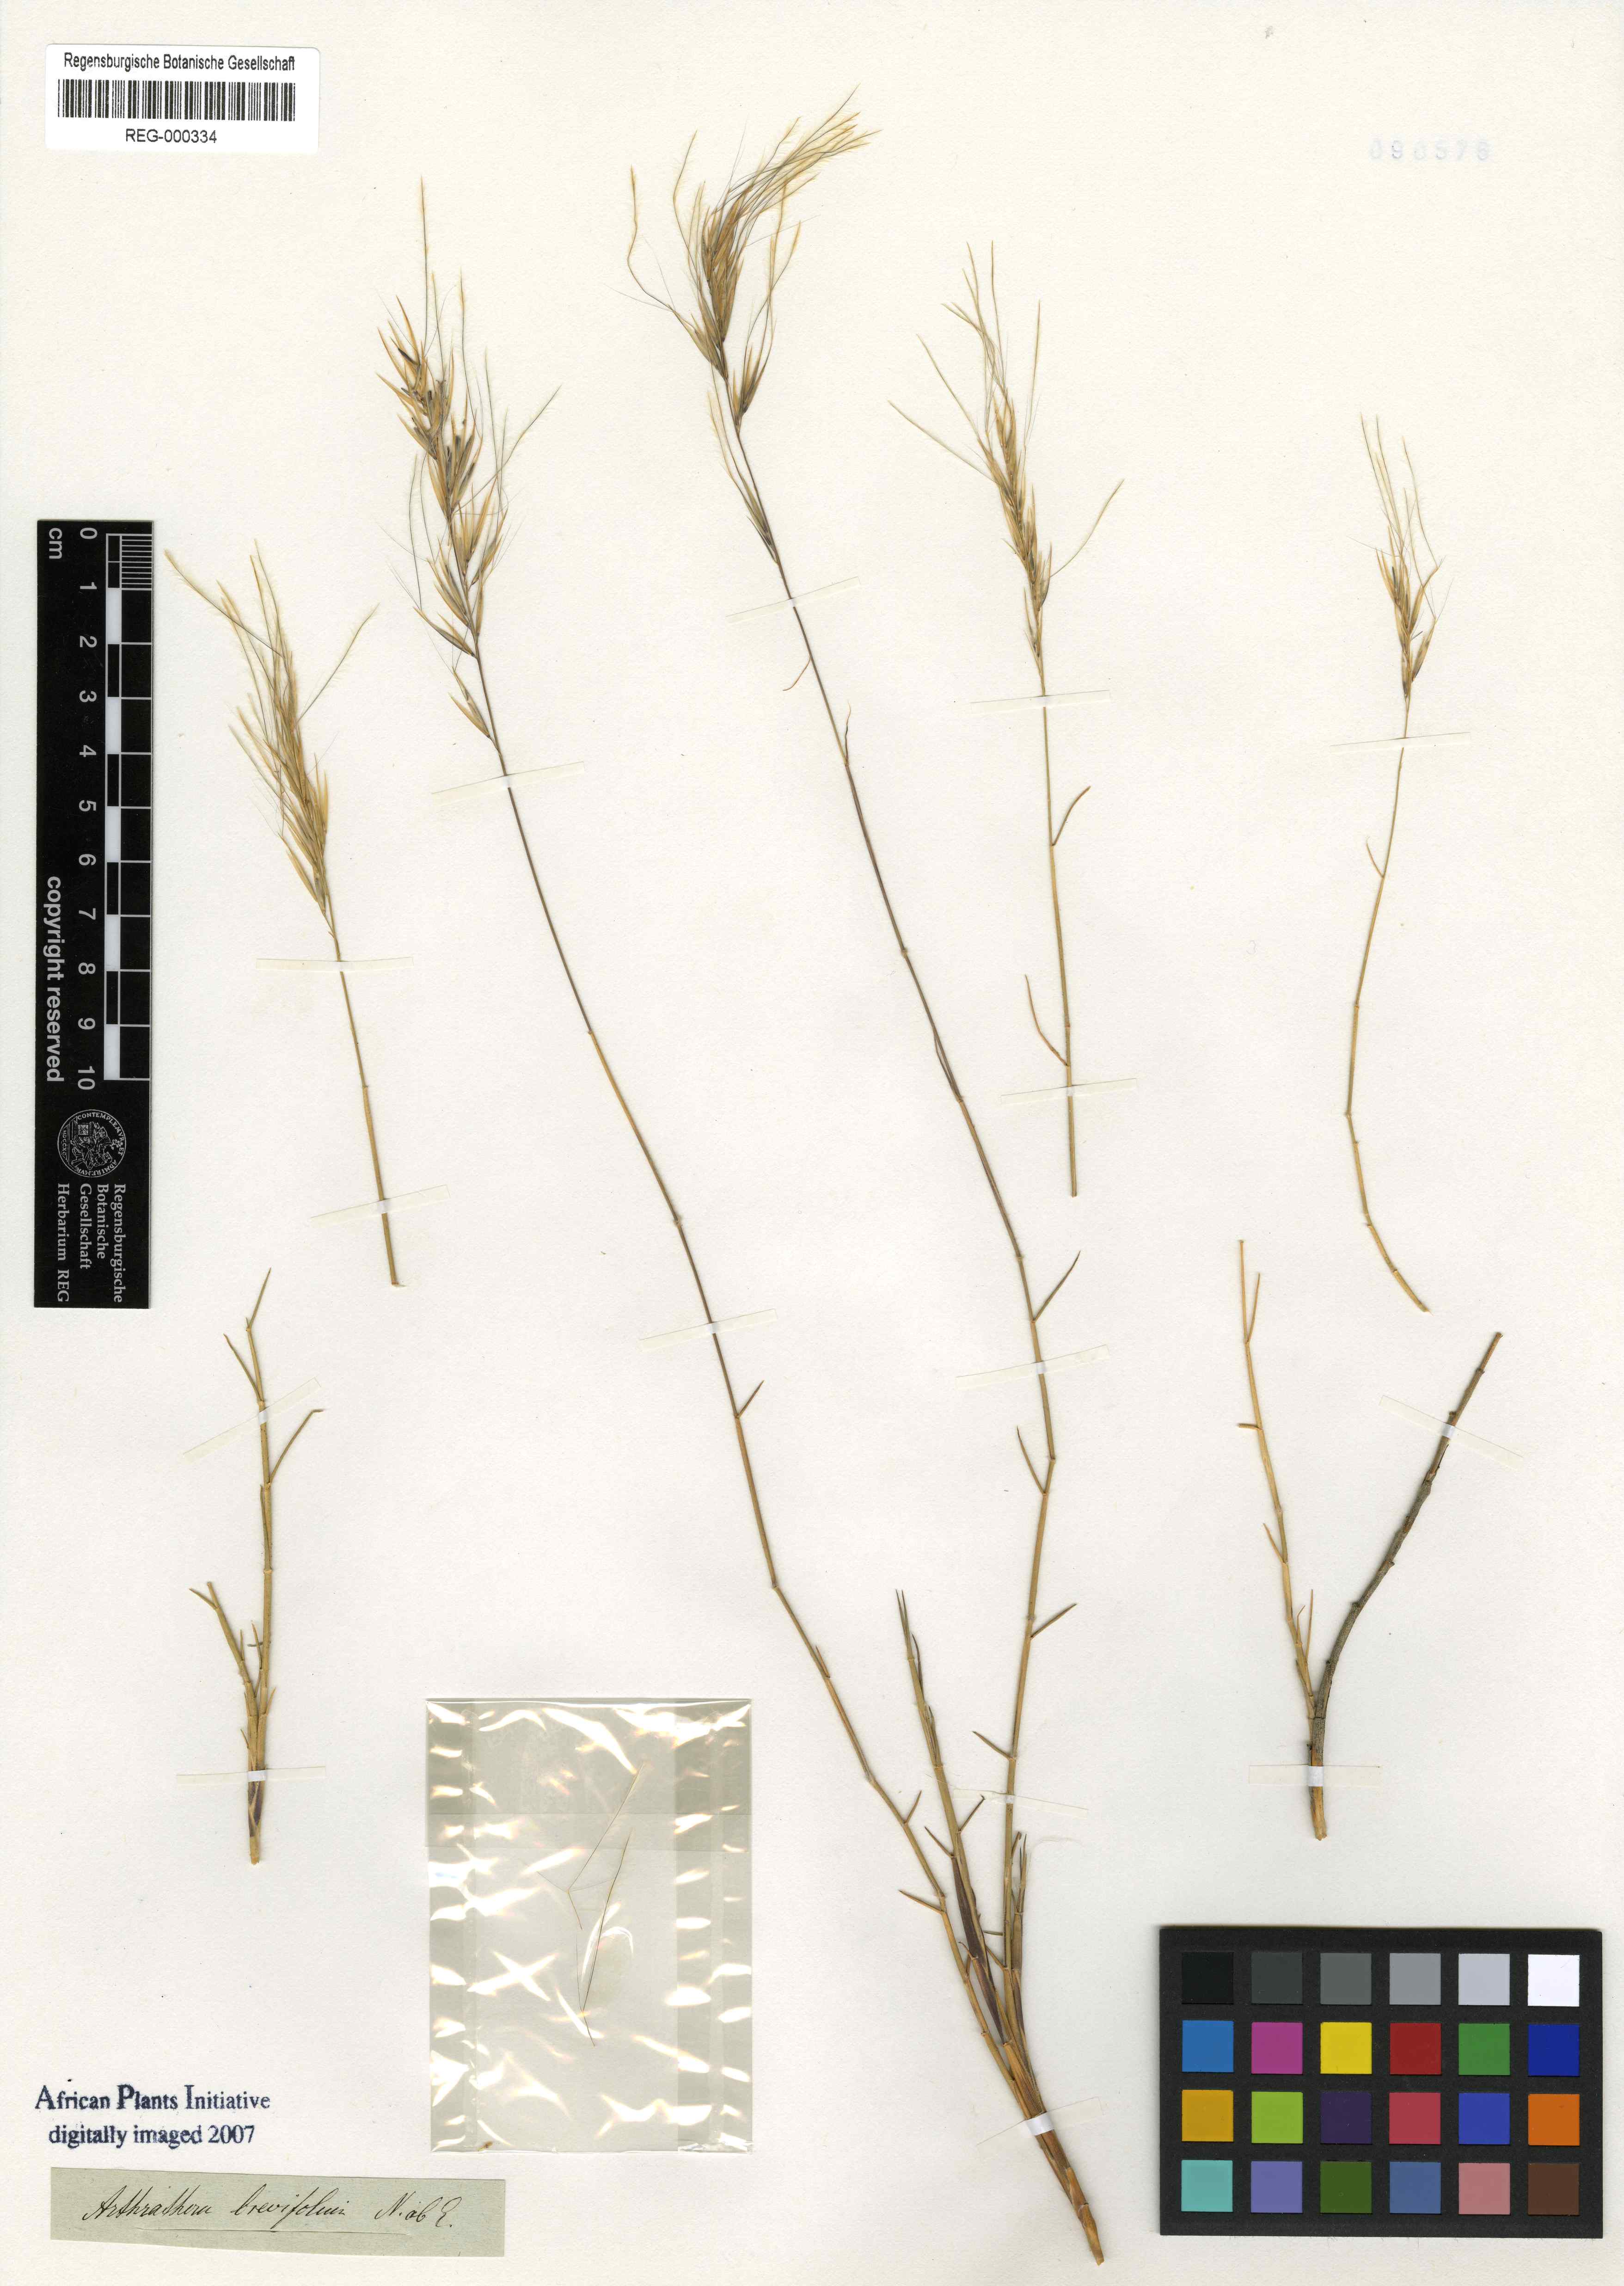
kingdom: Plantae
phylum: Tracheophyta
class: Liliopsida
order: Poales
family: Poaceae
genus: Stipagrostis
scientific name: Stipagrostis brevifolia
